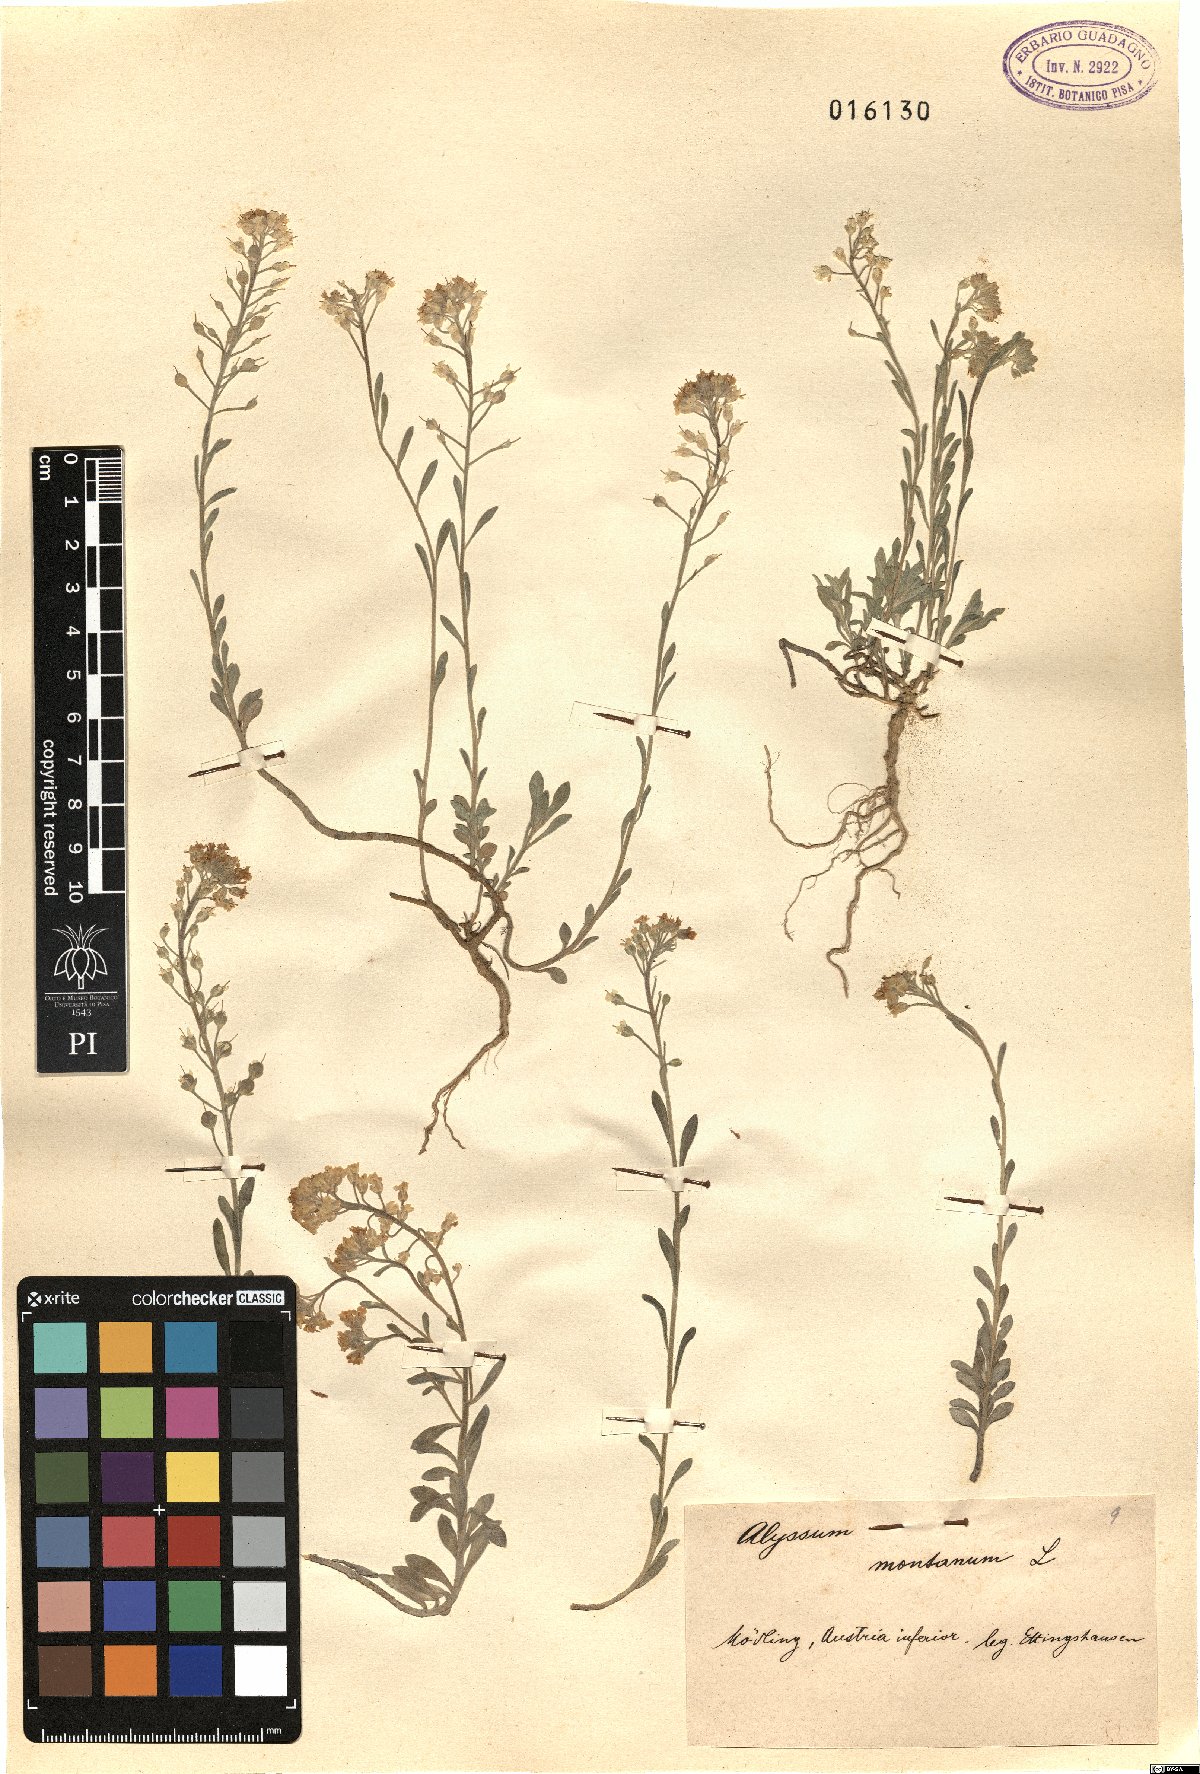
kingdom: Plantae
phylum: Tracheophyta
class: Magnoliopsida
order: Brassicales
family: Brassicaceae
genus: Alyssum
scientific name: Alyssum montanum
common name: Mountain alison
